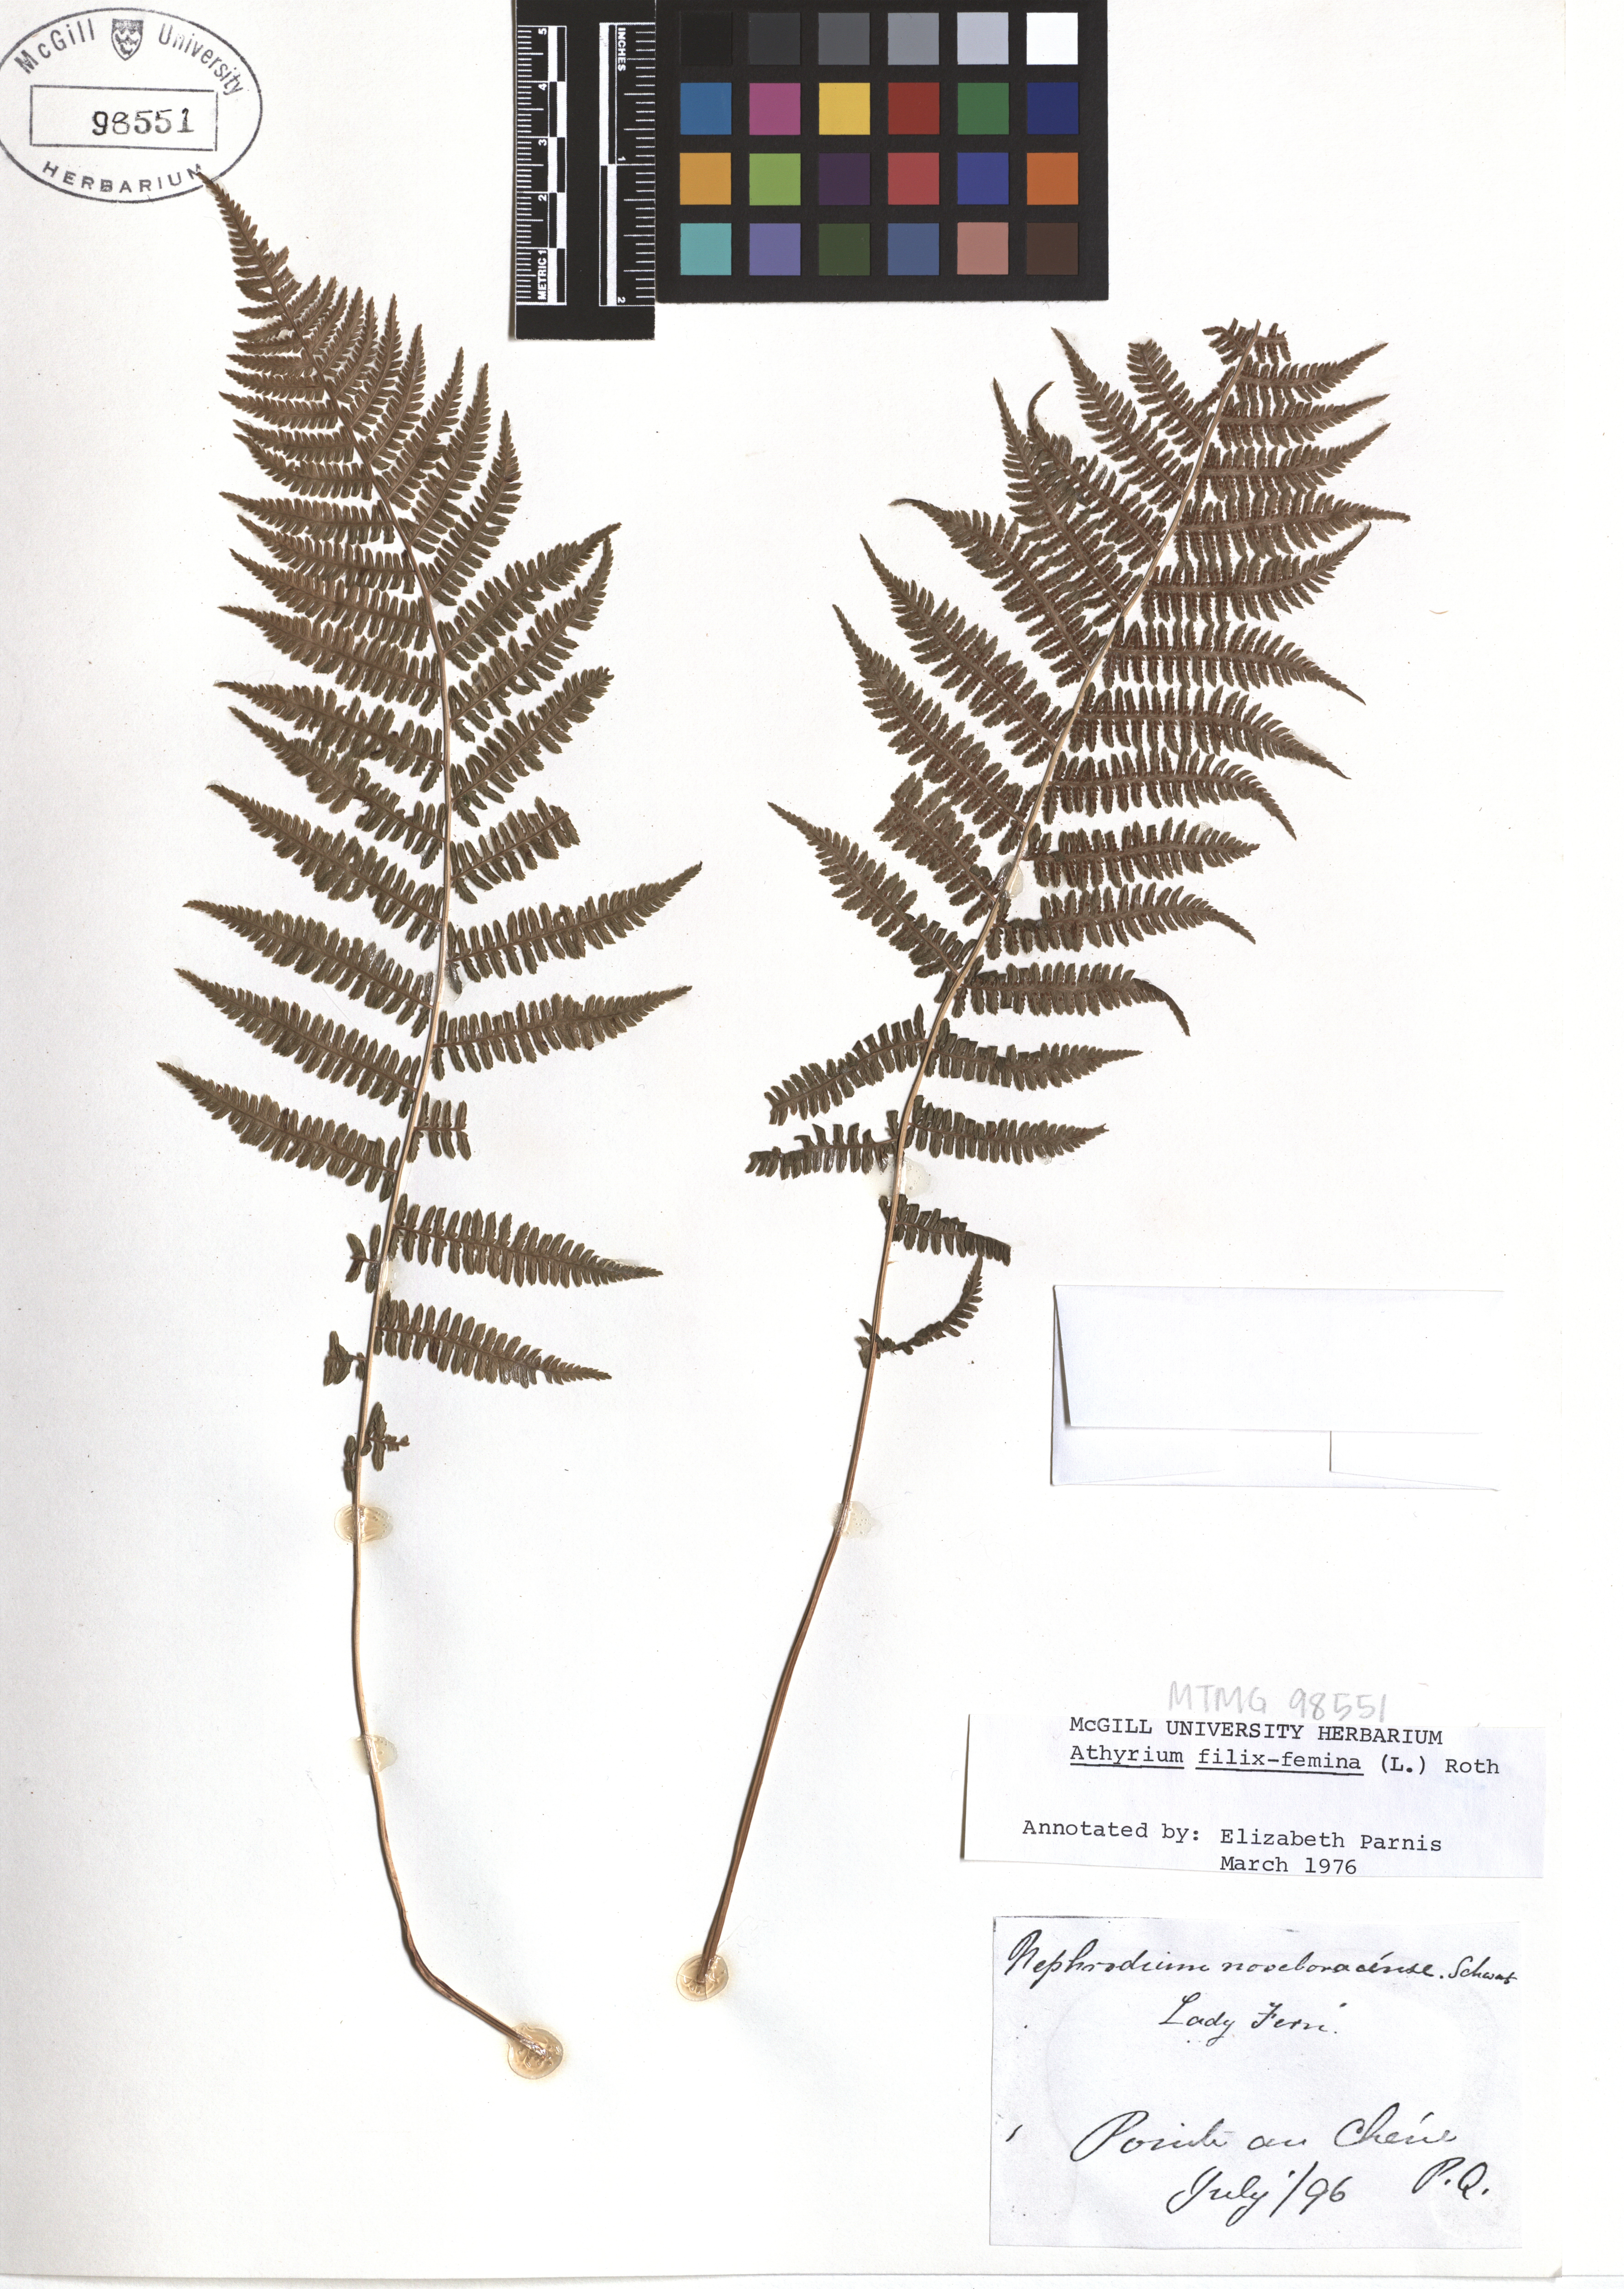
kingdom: Plantae
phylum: Tracheophyta
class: Polypodiopsida
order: Polypodiales
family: Athyriaceae
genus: Athyrium
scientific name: Athyrium filix-femina
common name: Lady fern
